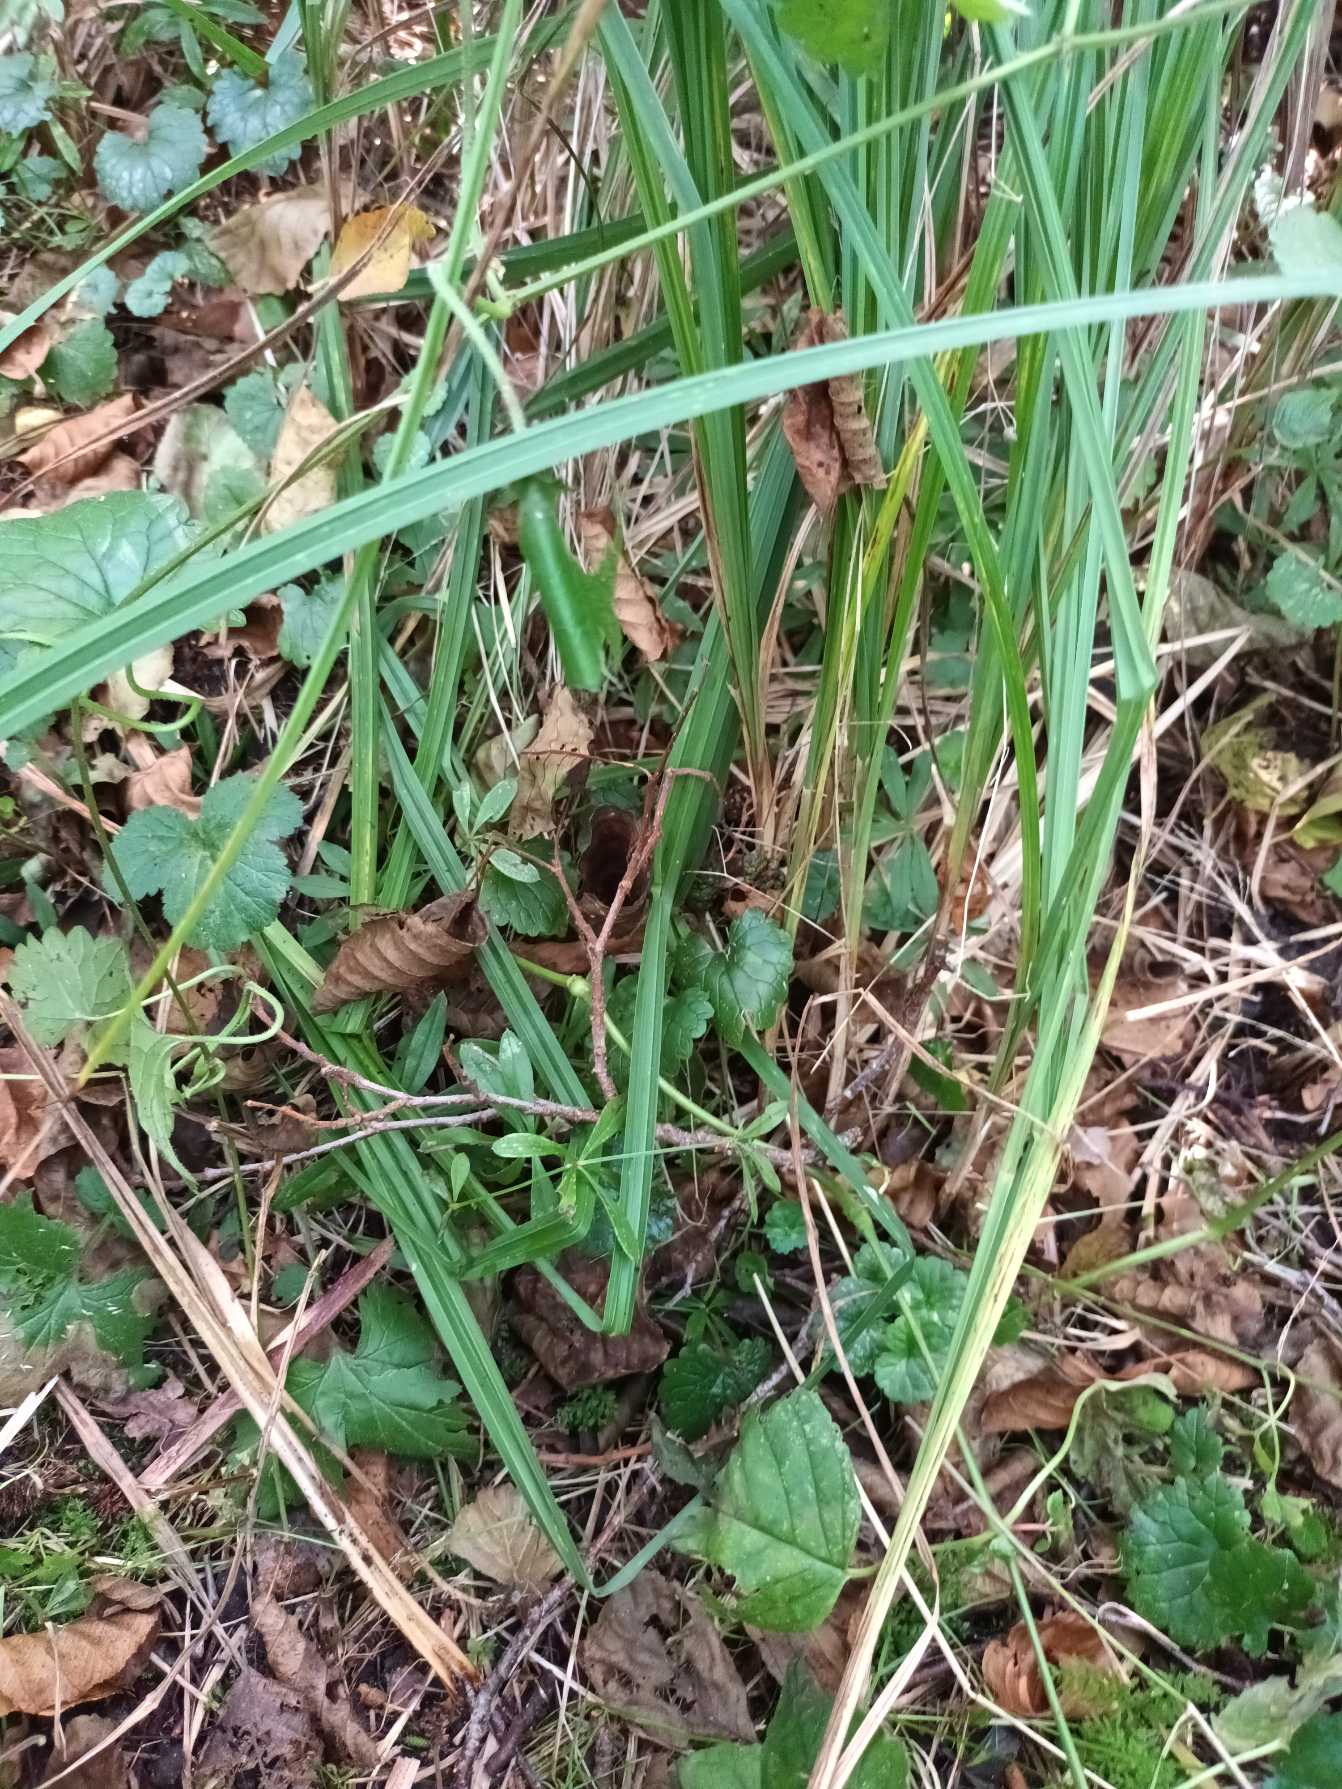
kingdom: Plantae
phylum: Tracheophyta
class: Liliopsida
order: Poales
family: Cyperaceae
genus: Carex
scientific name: Carex acutiformis
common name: Kær-star
